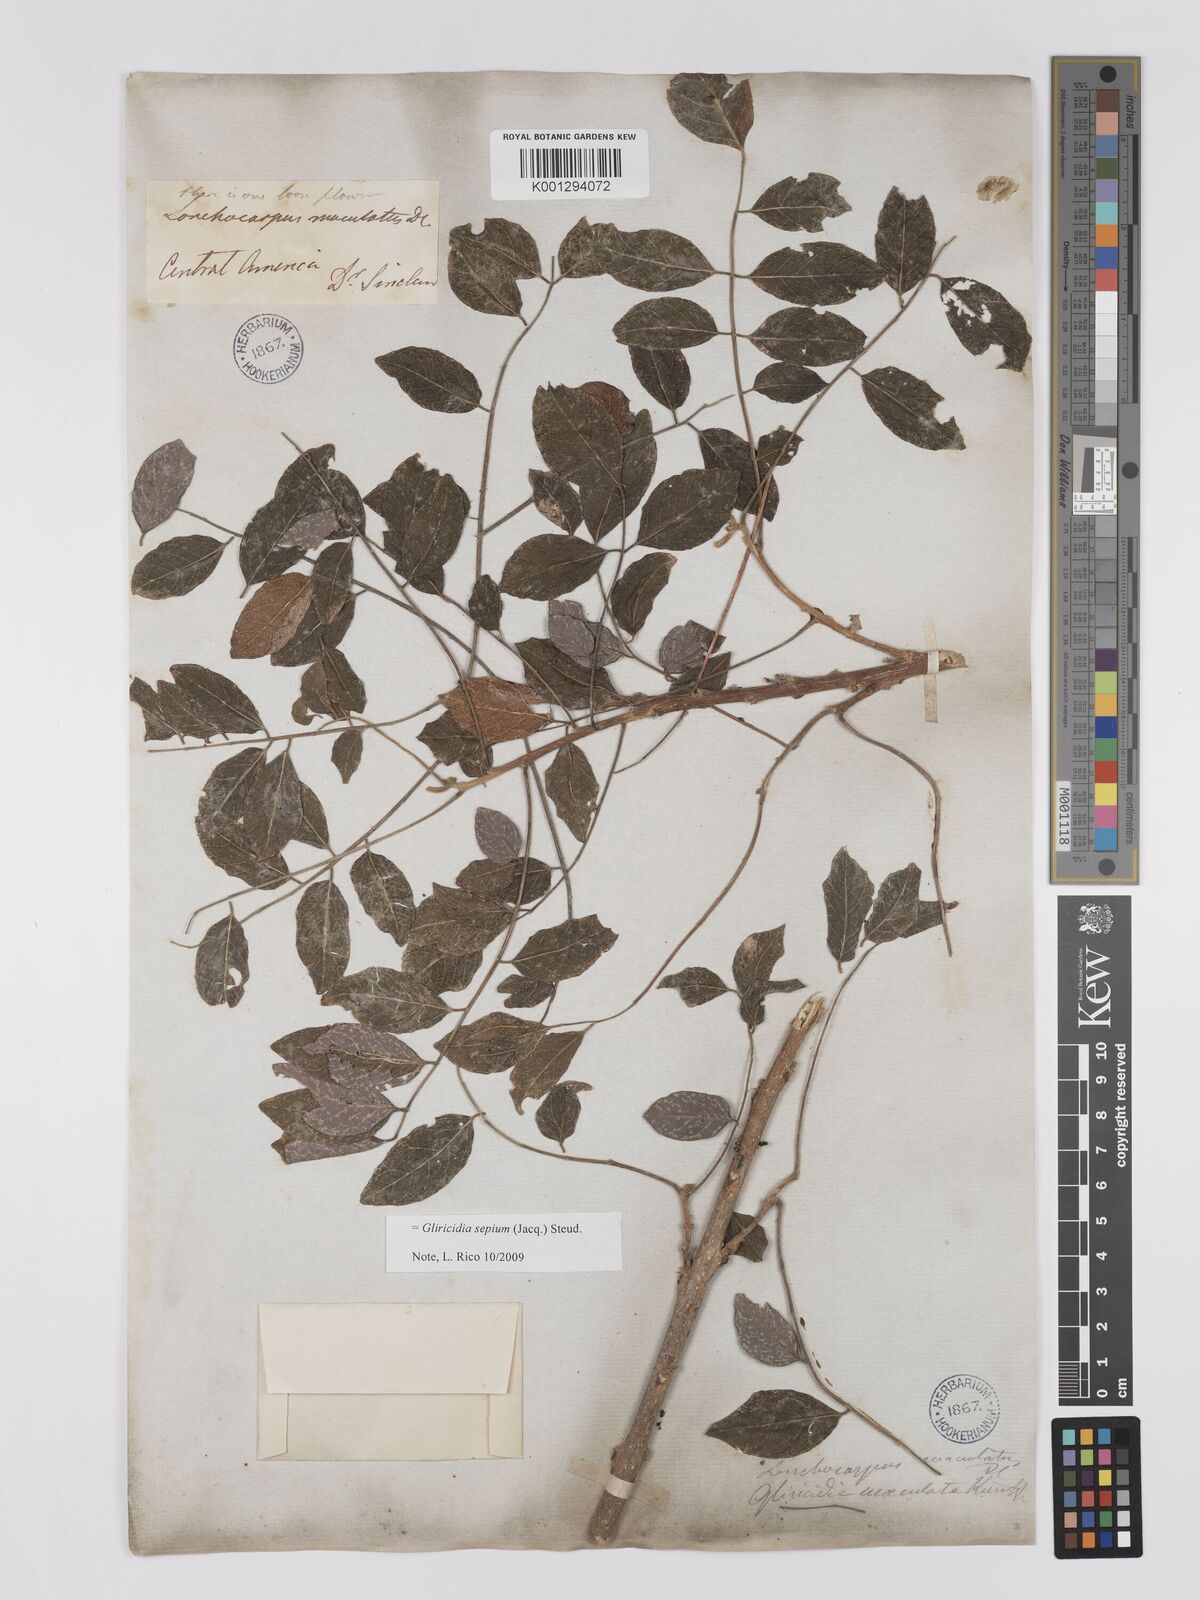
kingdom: Plantae
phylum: Tracheophyta
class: Magnoliopsida
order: Fabales
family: Fabaceae
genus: Gliricidia
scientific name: Gliricidia sepium
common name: Quickstick
